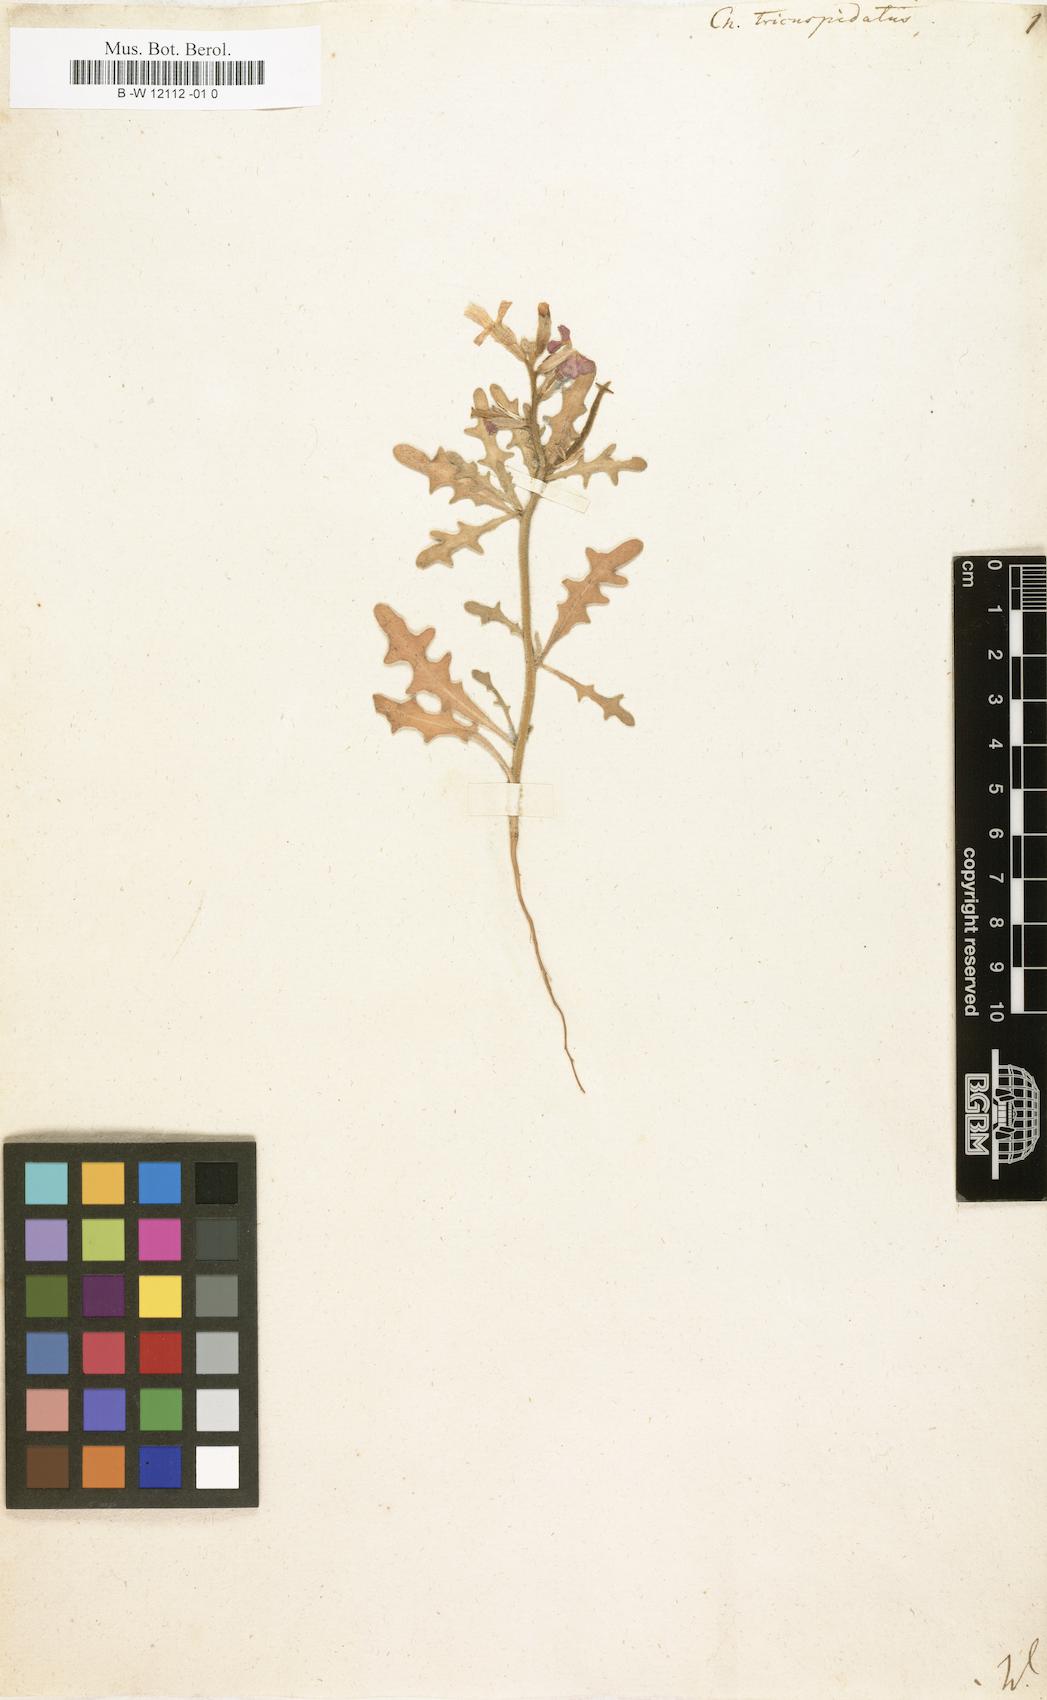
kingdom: Plantae
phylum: Tracheophyta
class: Magnoliopsida
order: Brassicales
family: Brassicaceae
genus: Matthiola
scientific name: Matthiola
